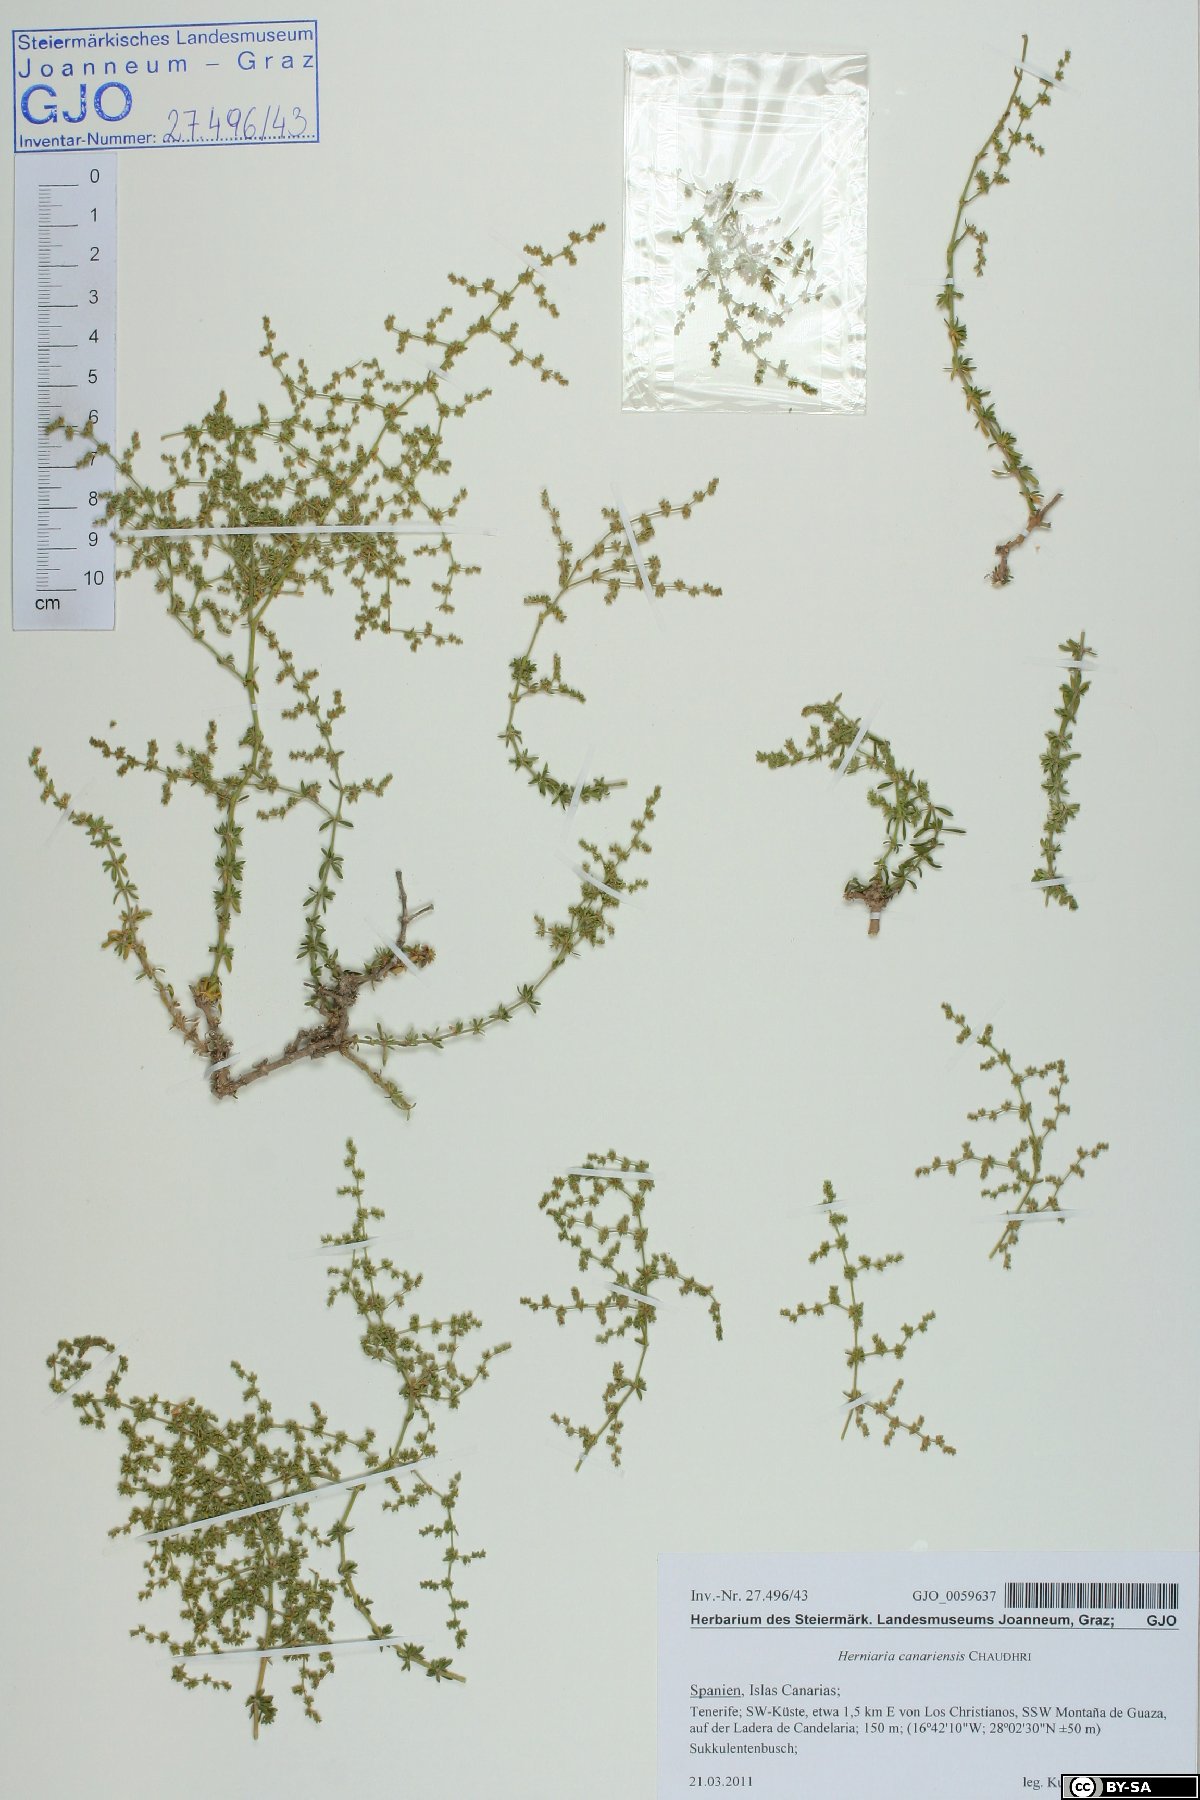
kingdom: Plantae
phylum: Tracheophyta
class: Magnoliopsida
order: Caryophyllales
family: Caryophyllaceae
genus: Herniaria
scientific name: Herniaria canariensis
